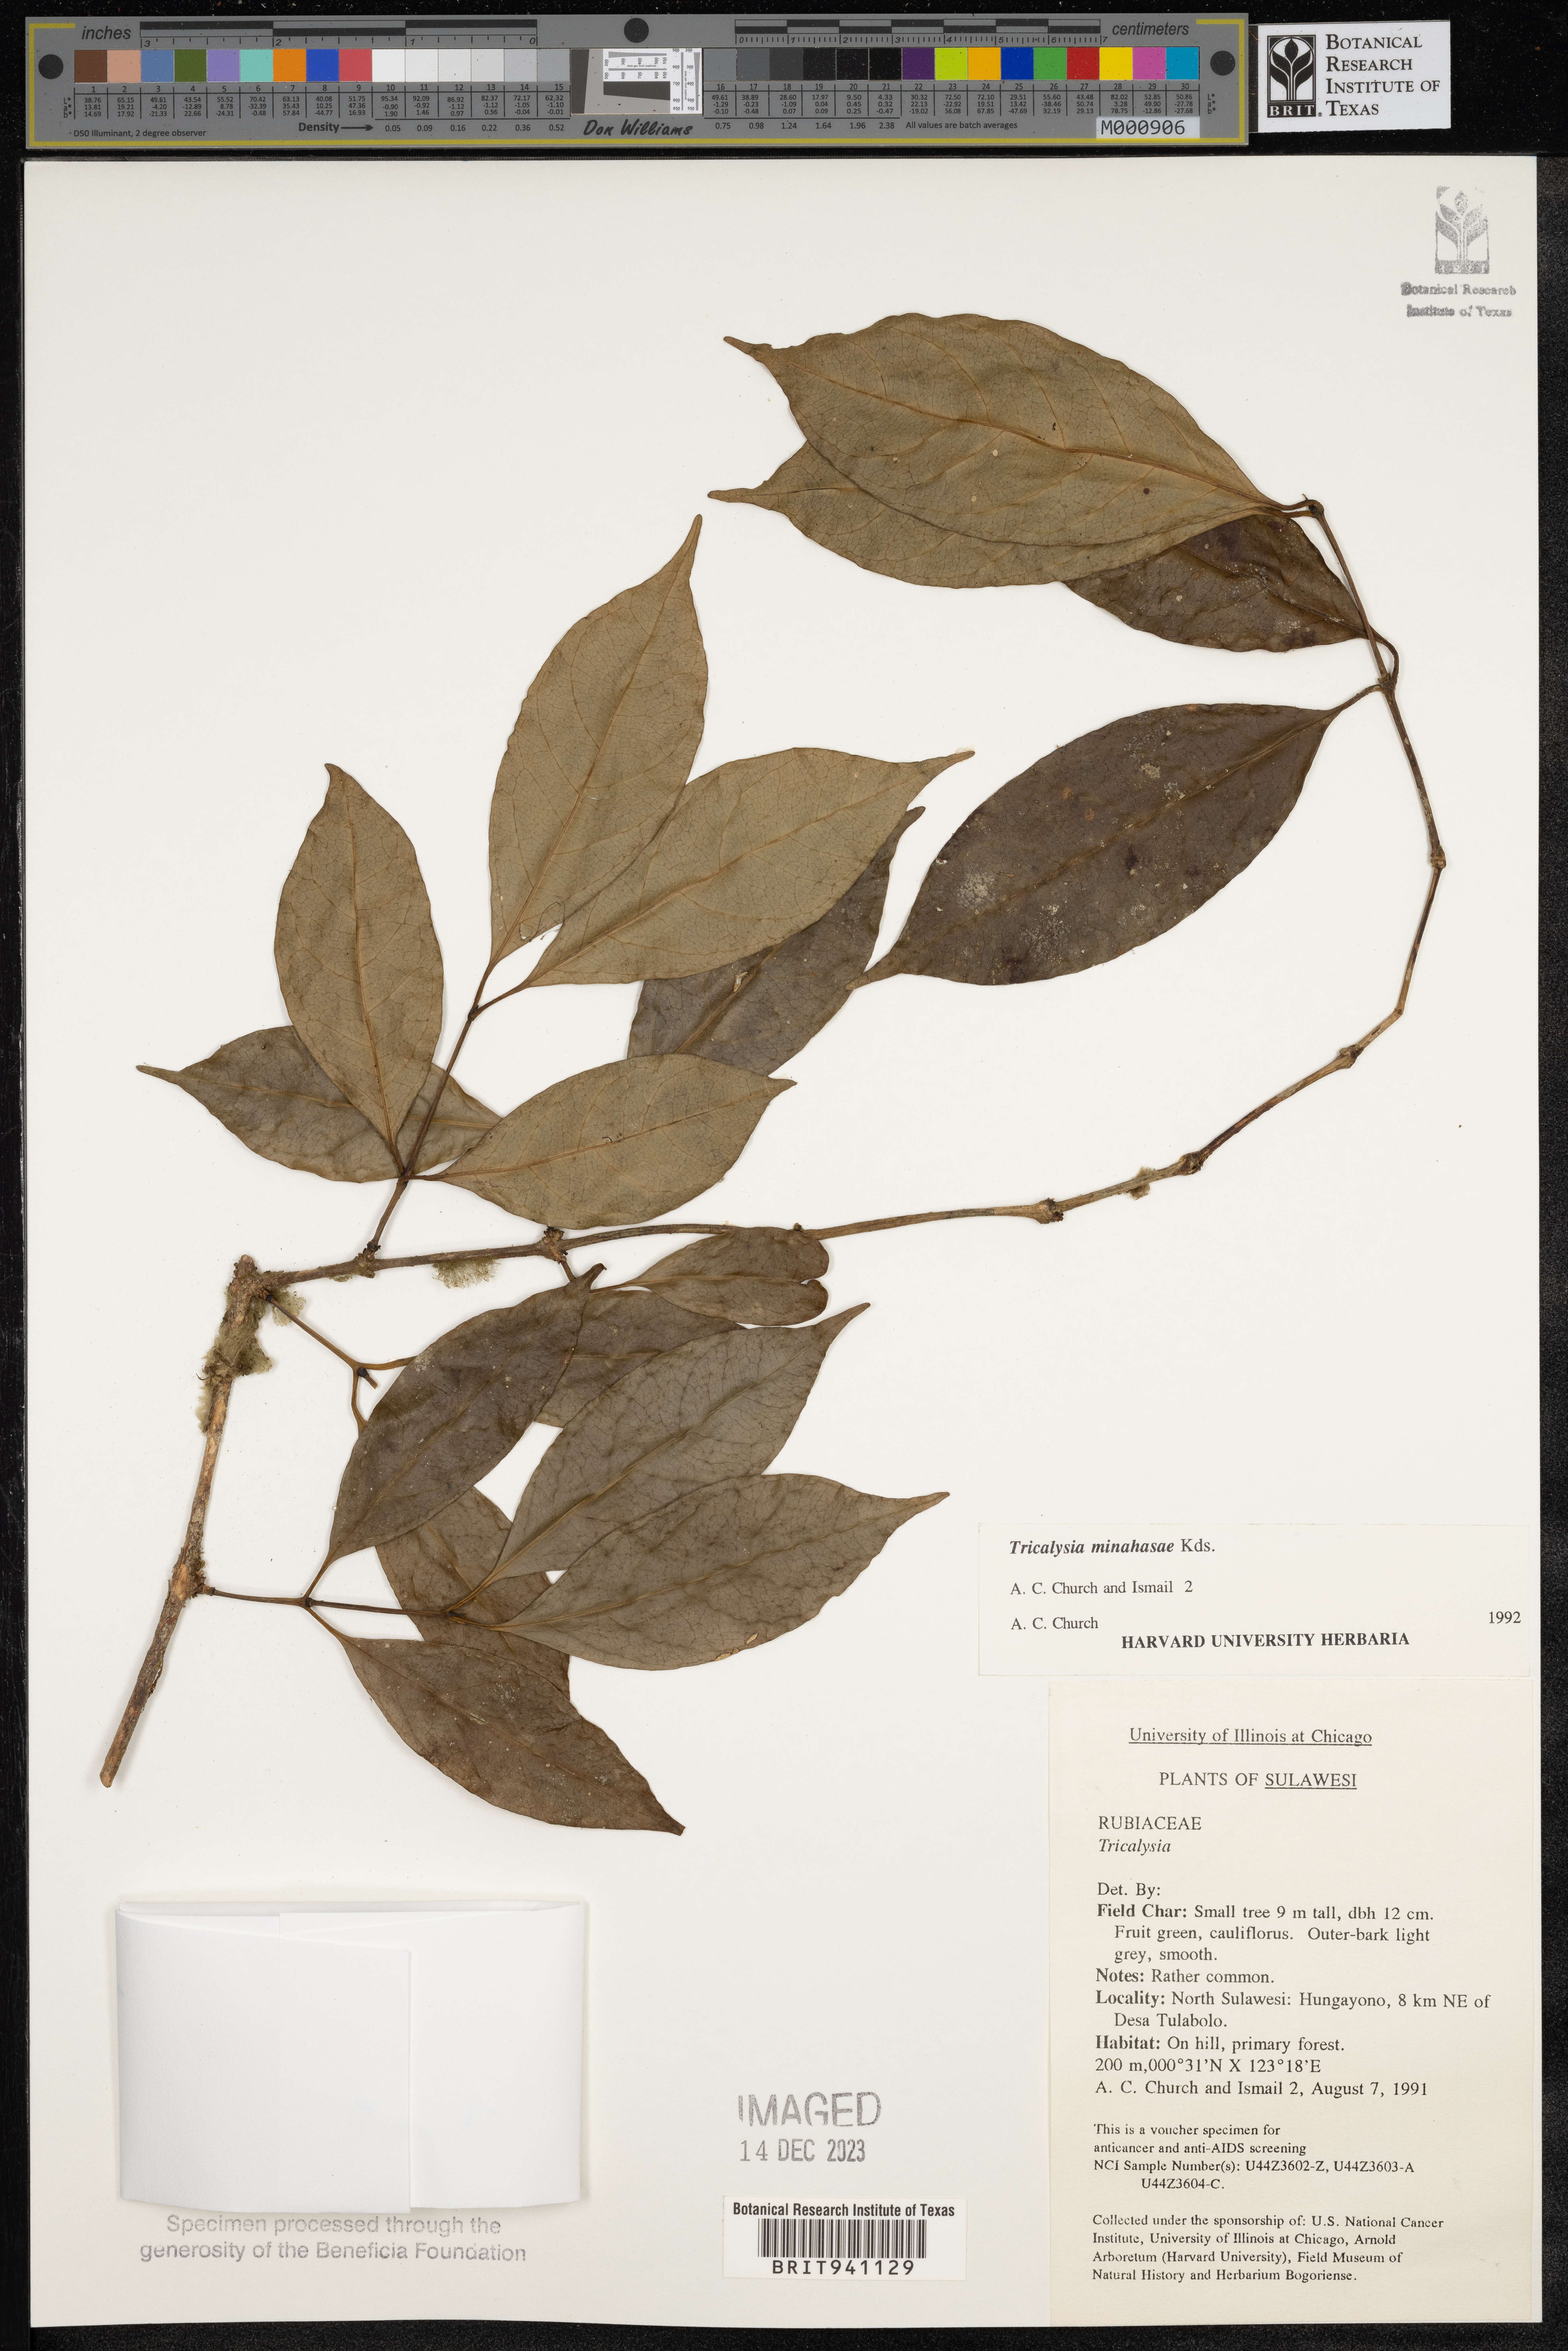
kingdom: Plantae
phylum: Tracheophyta
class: Magnoliopsida
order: Gentianales
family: Rubiaceae
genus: Tricalysia
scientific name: Tricalysia
